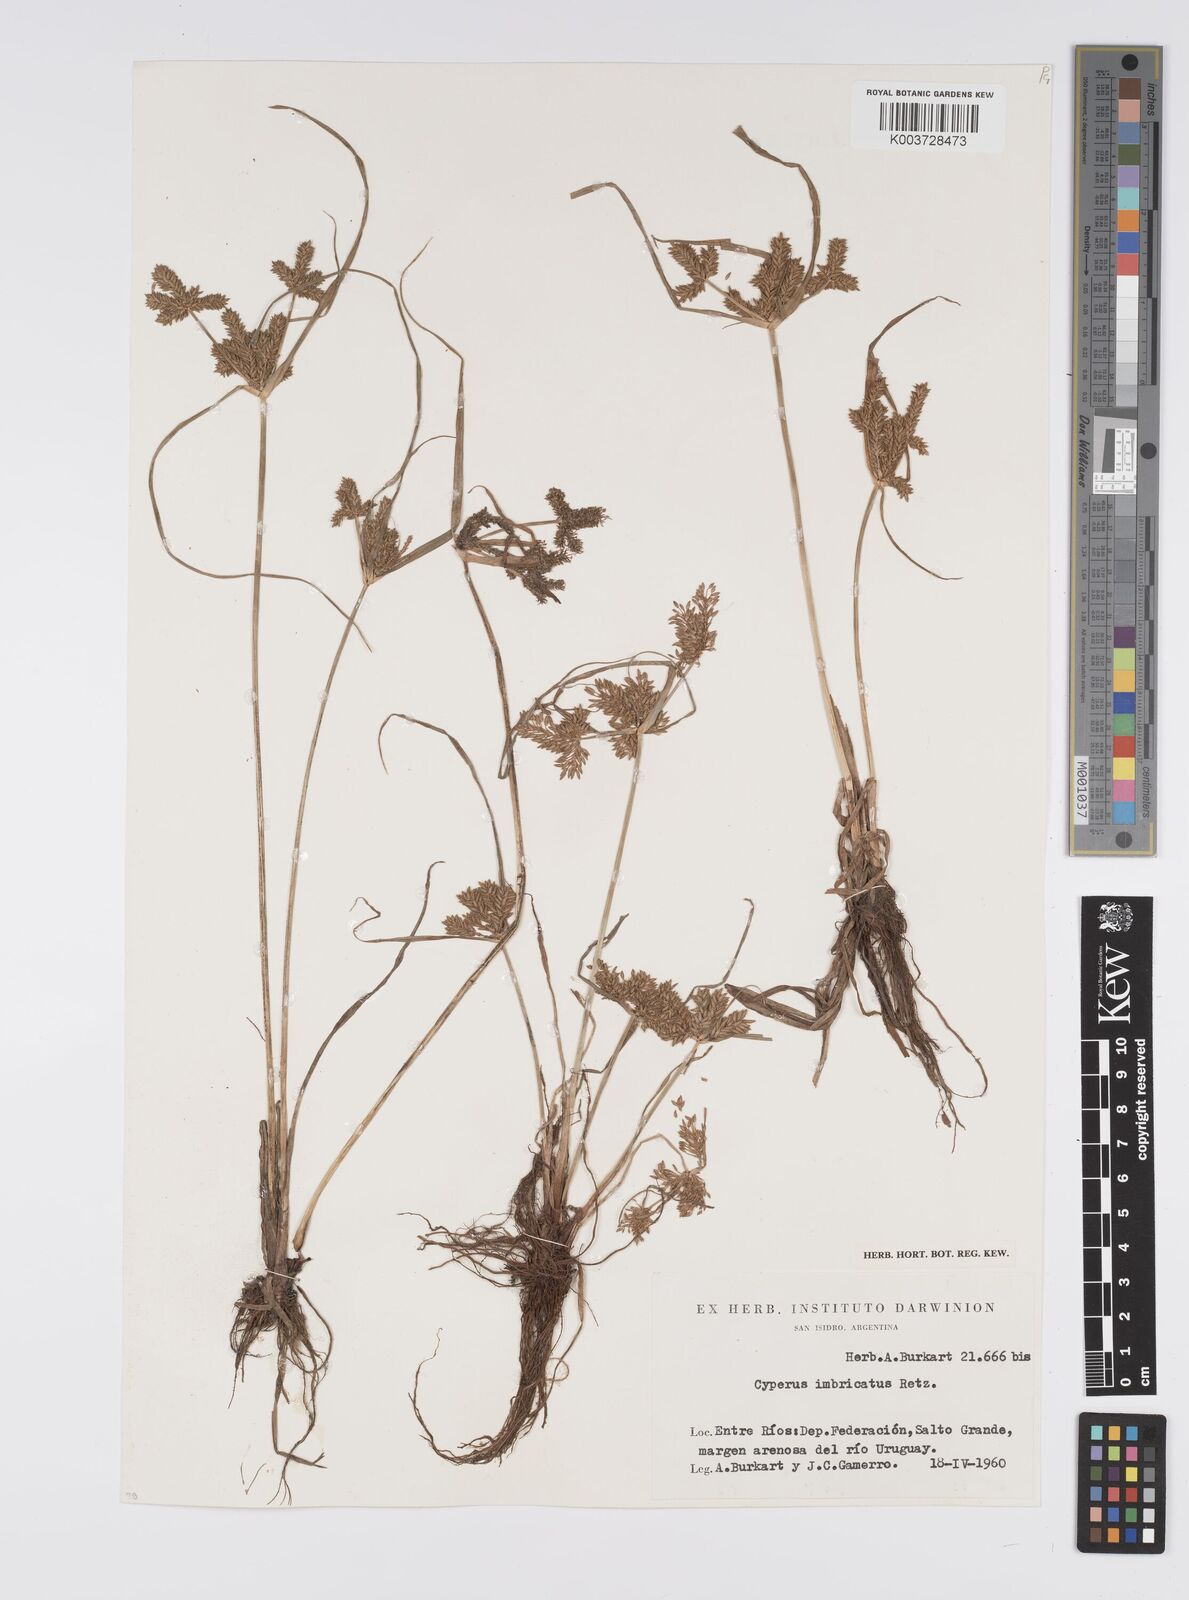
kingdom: Plantae
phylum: Tracheophyta
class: Liliopsida
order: Poales
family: Cyperaceae
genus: Cyperus
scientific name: Cyperus imbricatus
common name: Shingle flatsedge
